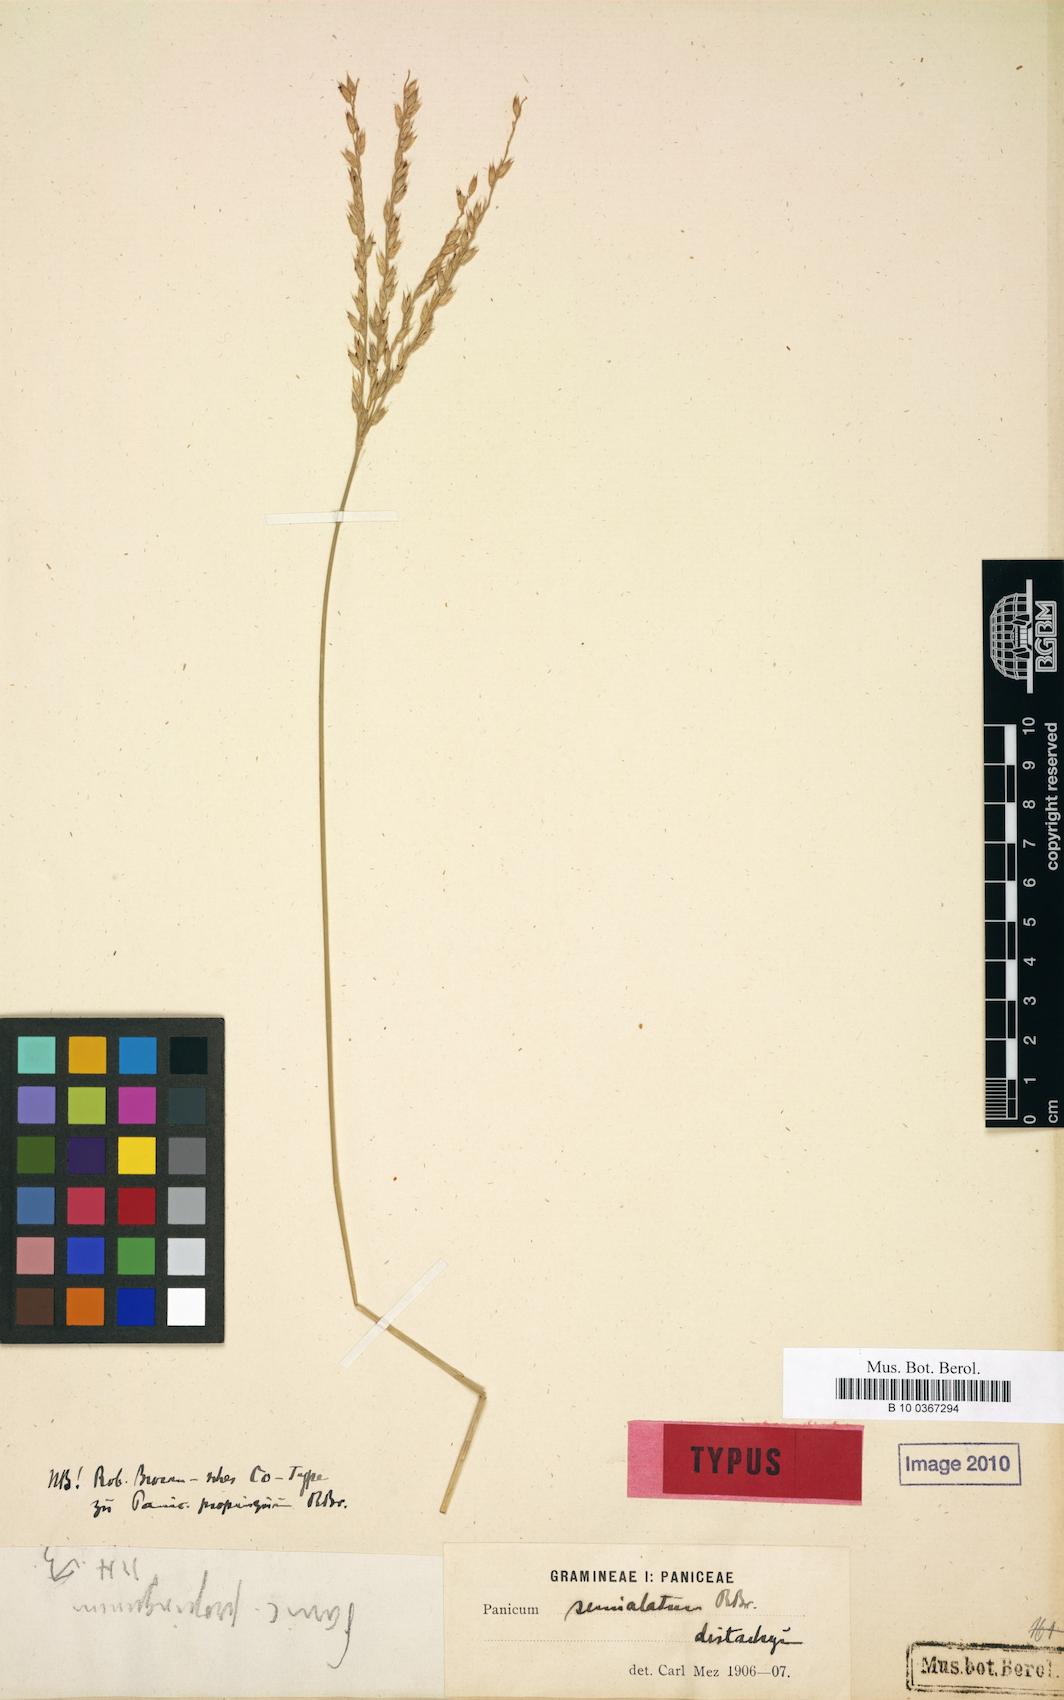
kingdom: Plantae
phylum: Tracheophyta
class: Liliopsida
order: Poales
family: Poaceae
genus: Digitaria
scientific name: Digitaria longiflora
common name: Wire crabgrass
